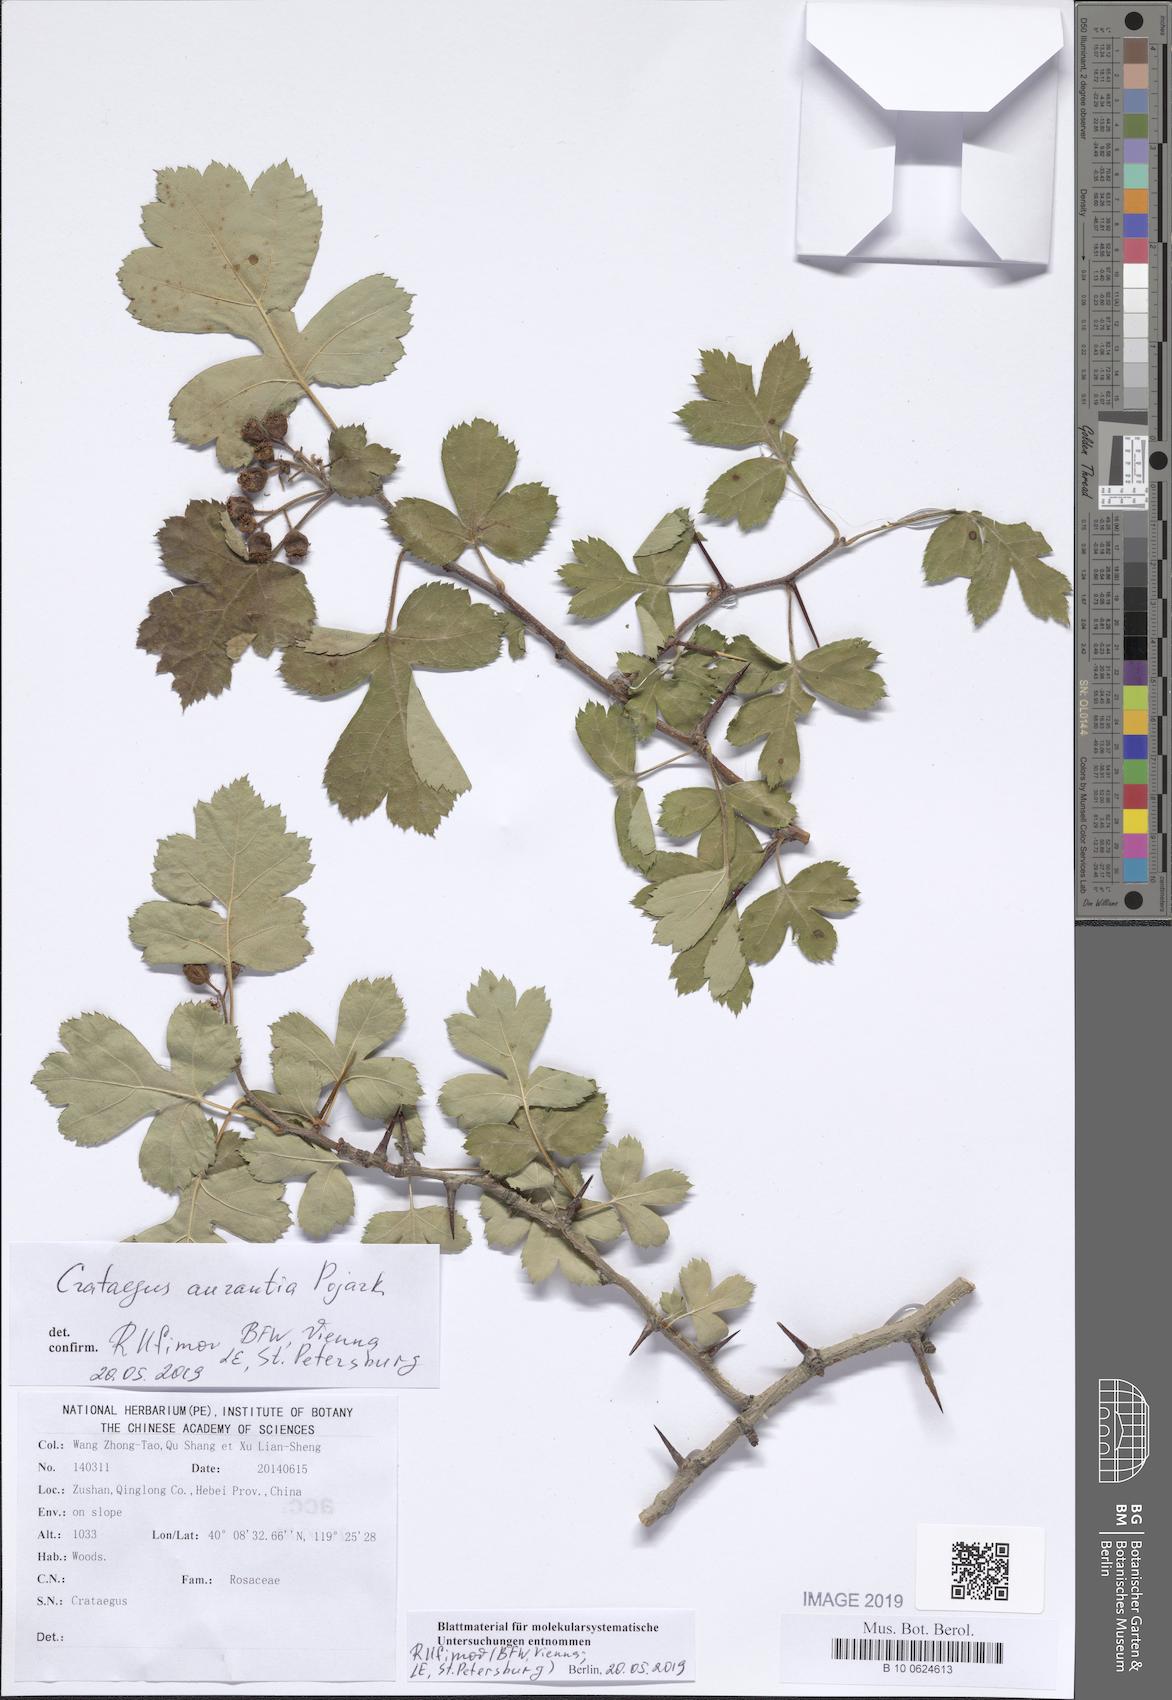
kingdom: Plantae
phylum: Tracheophyta
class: Magnoliopsida
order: Rosales
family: Rosaceae
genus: Crataegus
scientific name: Crataegus aurantia
